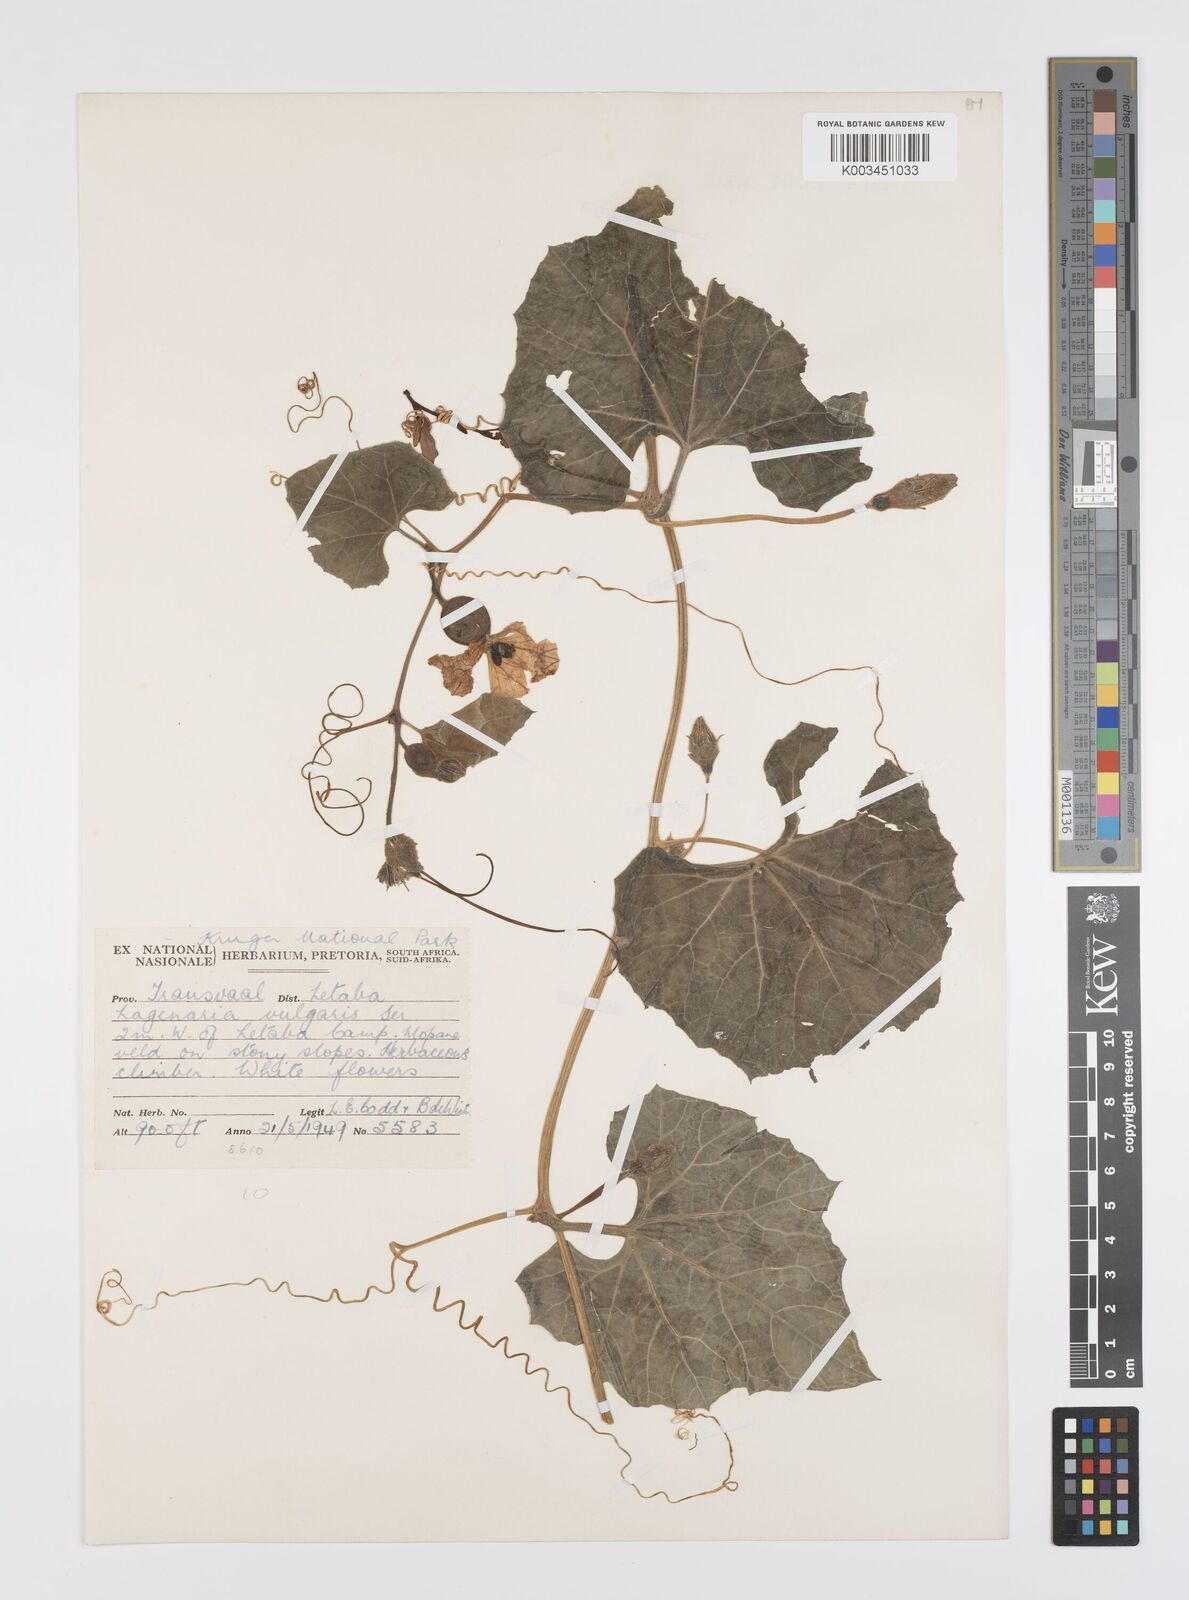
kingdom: Plantae
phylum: Tracheophyta
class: Magnoliopsida
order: Cucurbitales
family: Cucurbitaceae
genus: Lagenaria
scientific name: Lagenaria
